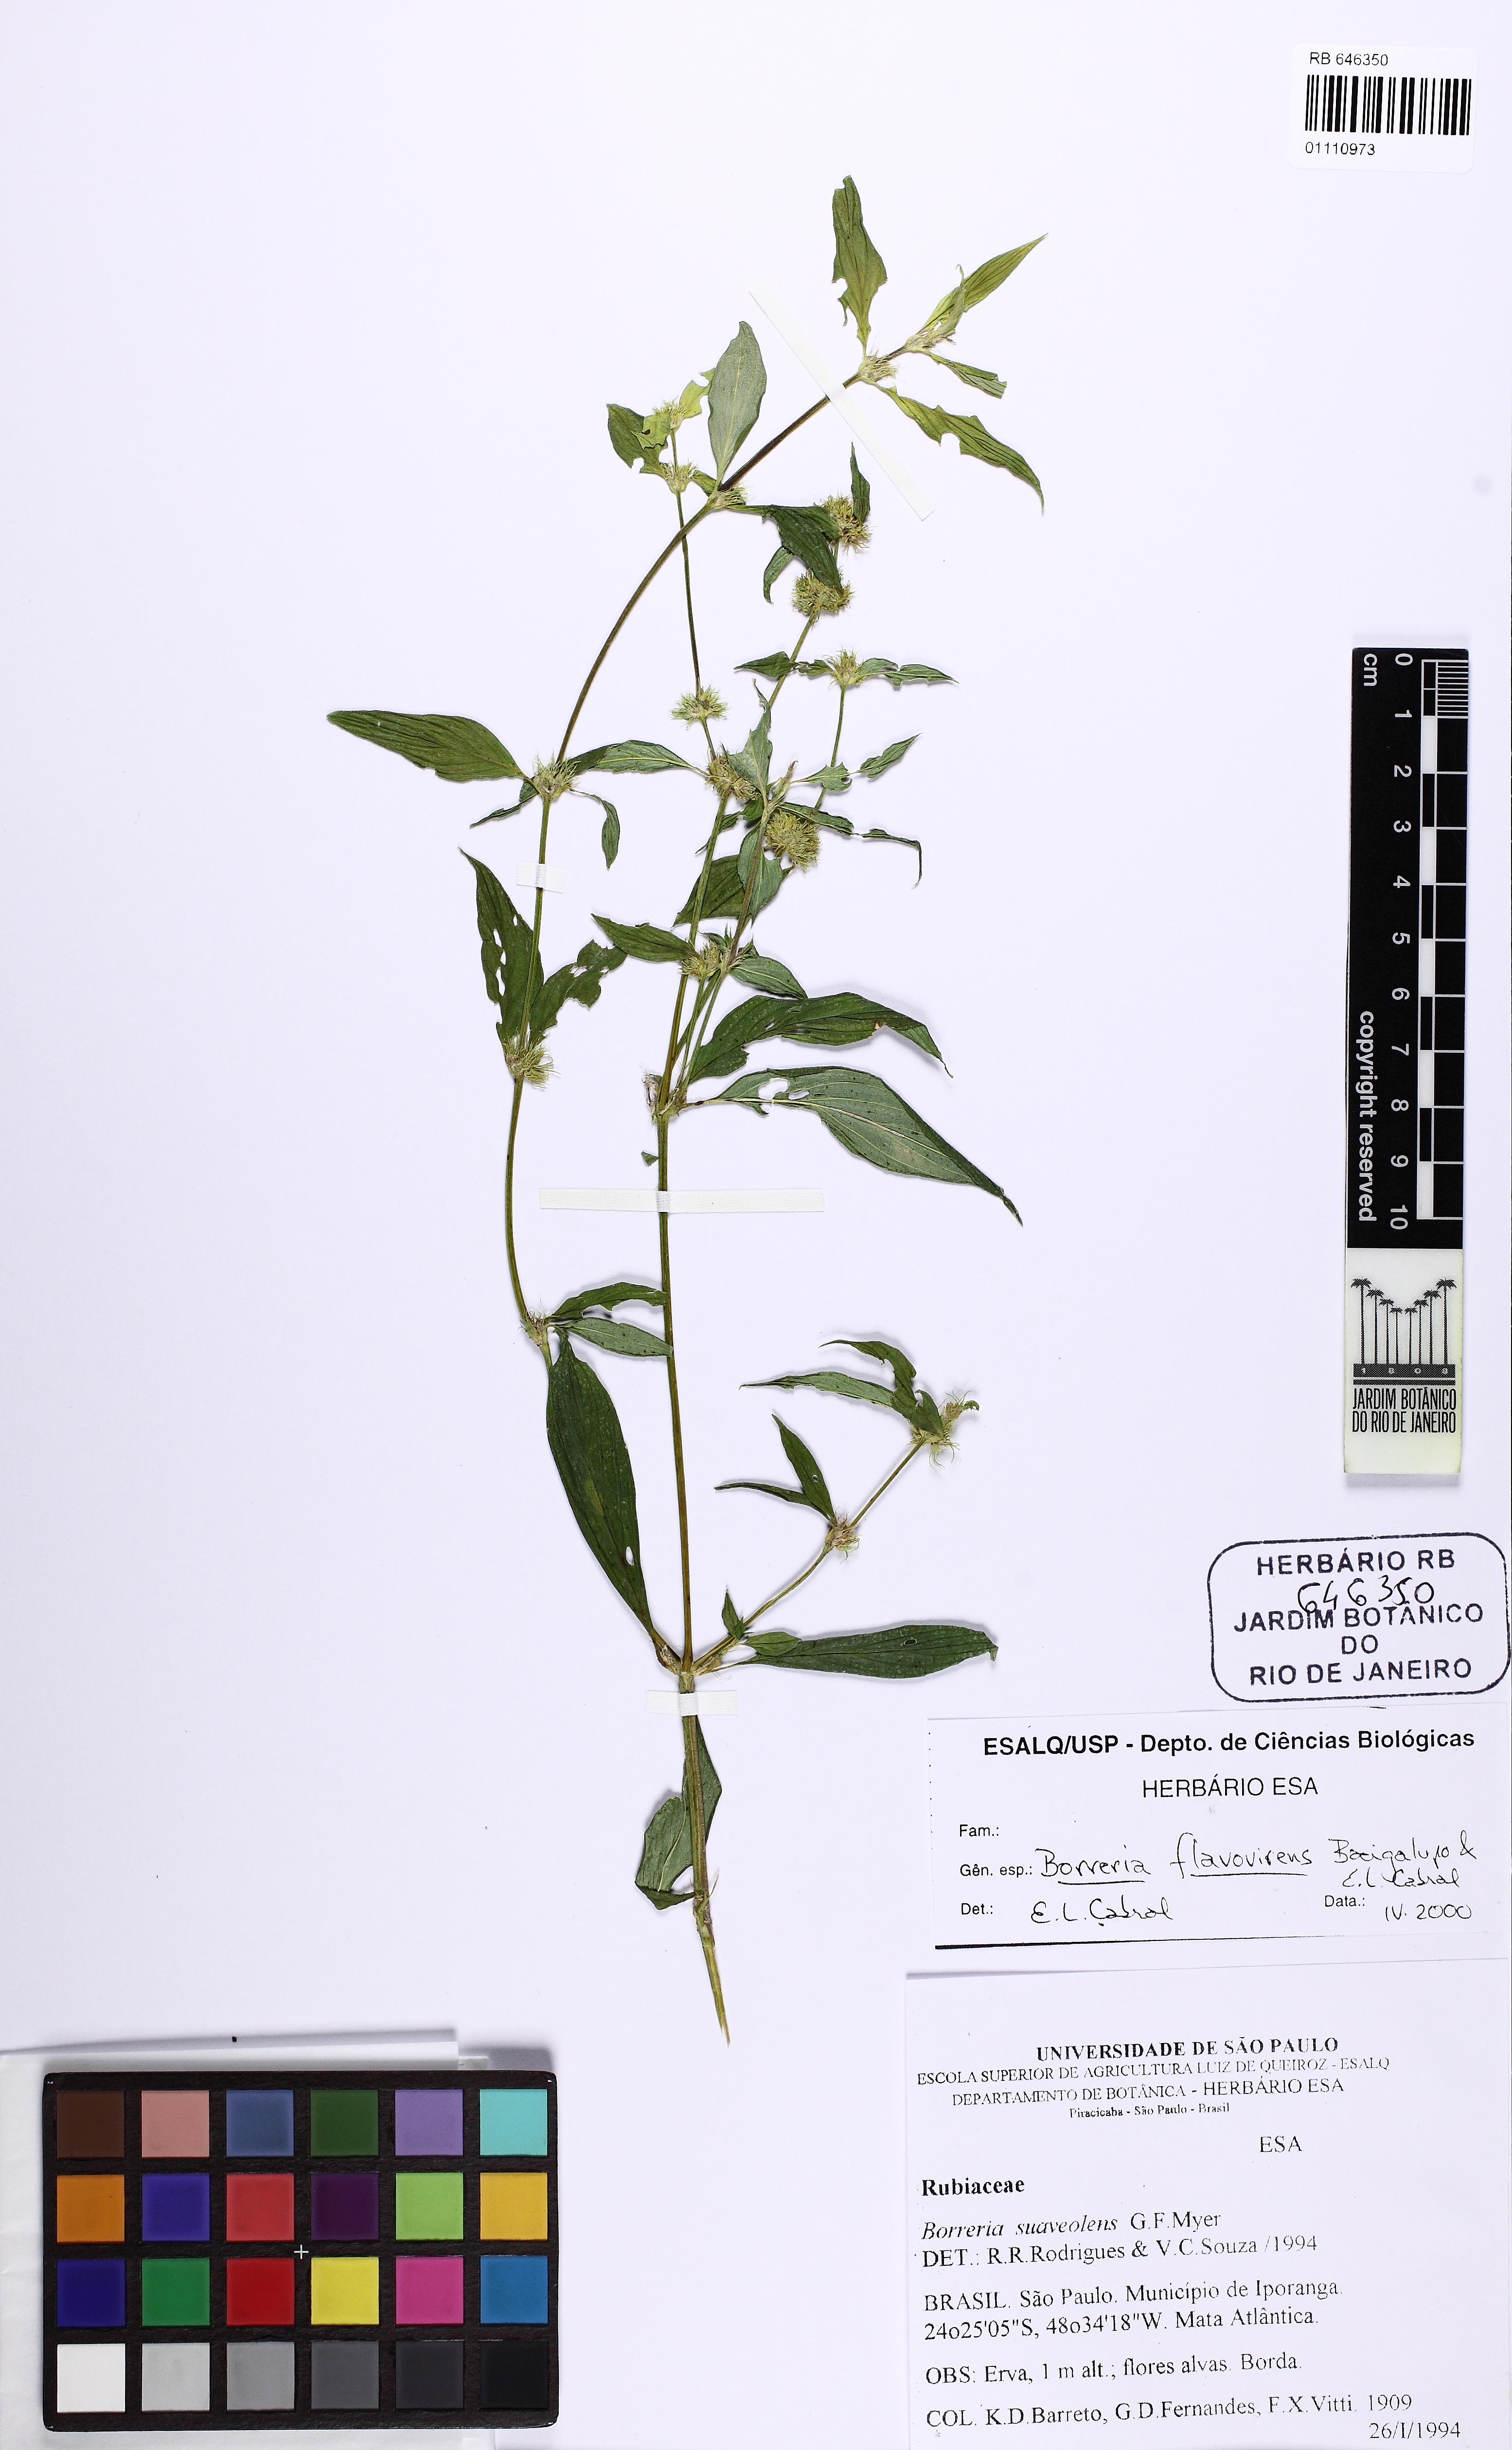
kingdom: Plantae
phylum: Tracheophyta
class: Magnoliopsida
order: Gentianales
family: Rubiaceae
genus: Spermacoce
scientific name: Spermacoce schumannii
